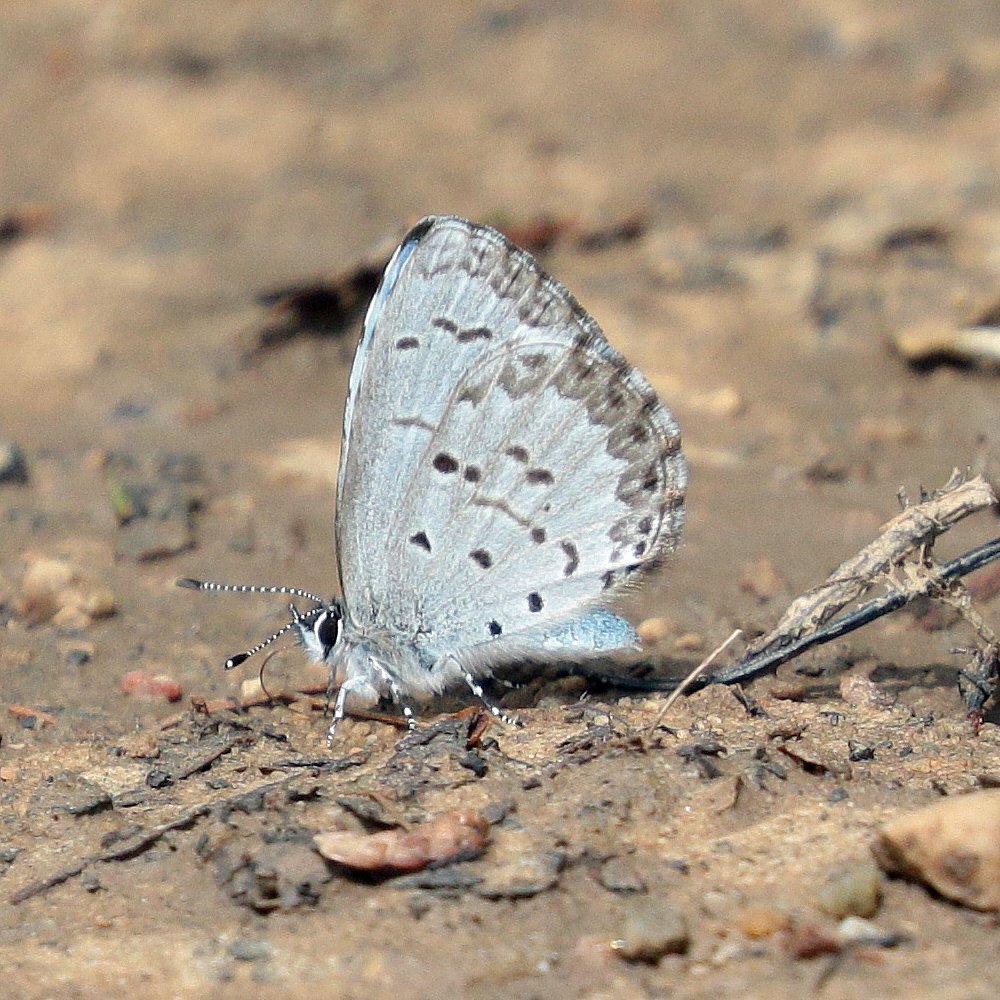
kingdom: Animalia
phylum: Arthropoda
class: Insecta
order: Lepidoptera
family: Lycaenidae
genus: Celastrina
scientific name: Celastrina lucia
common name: Northern Spring Azure
